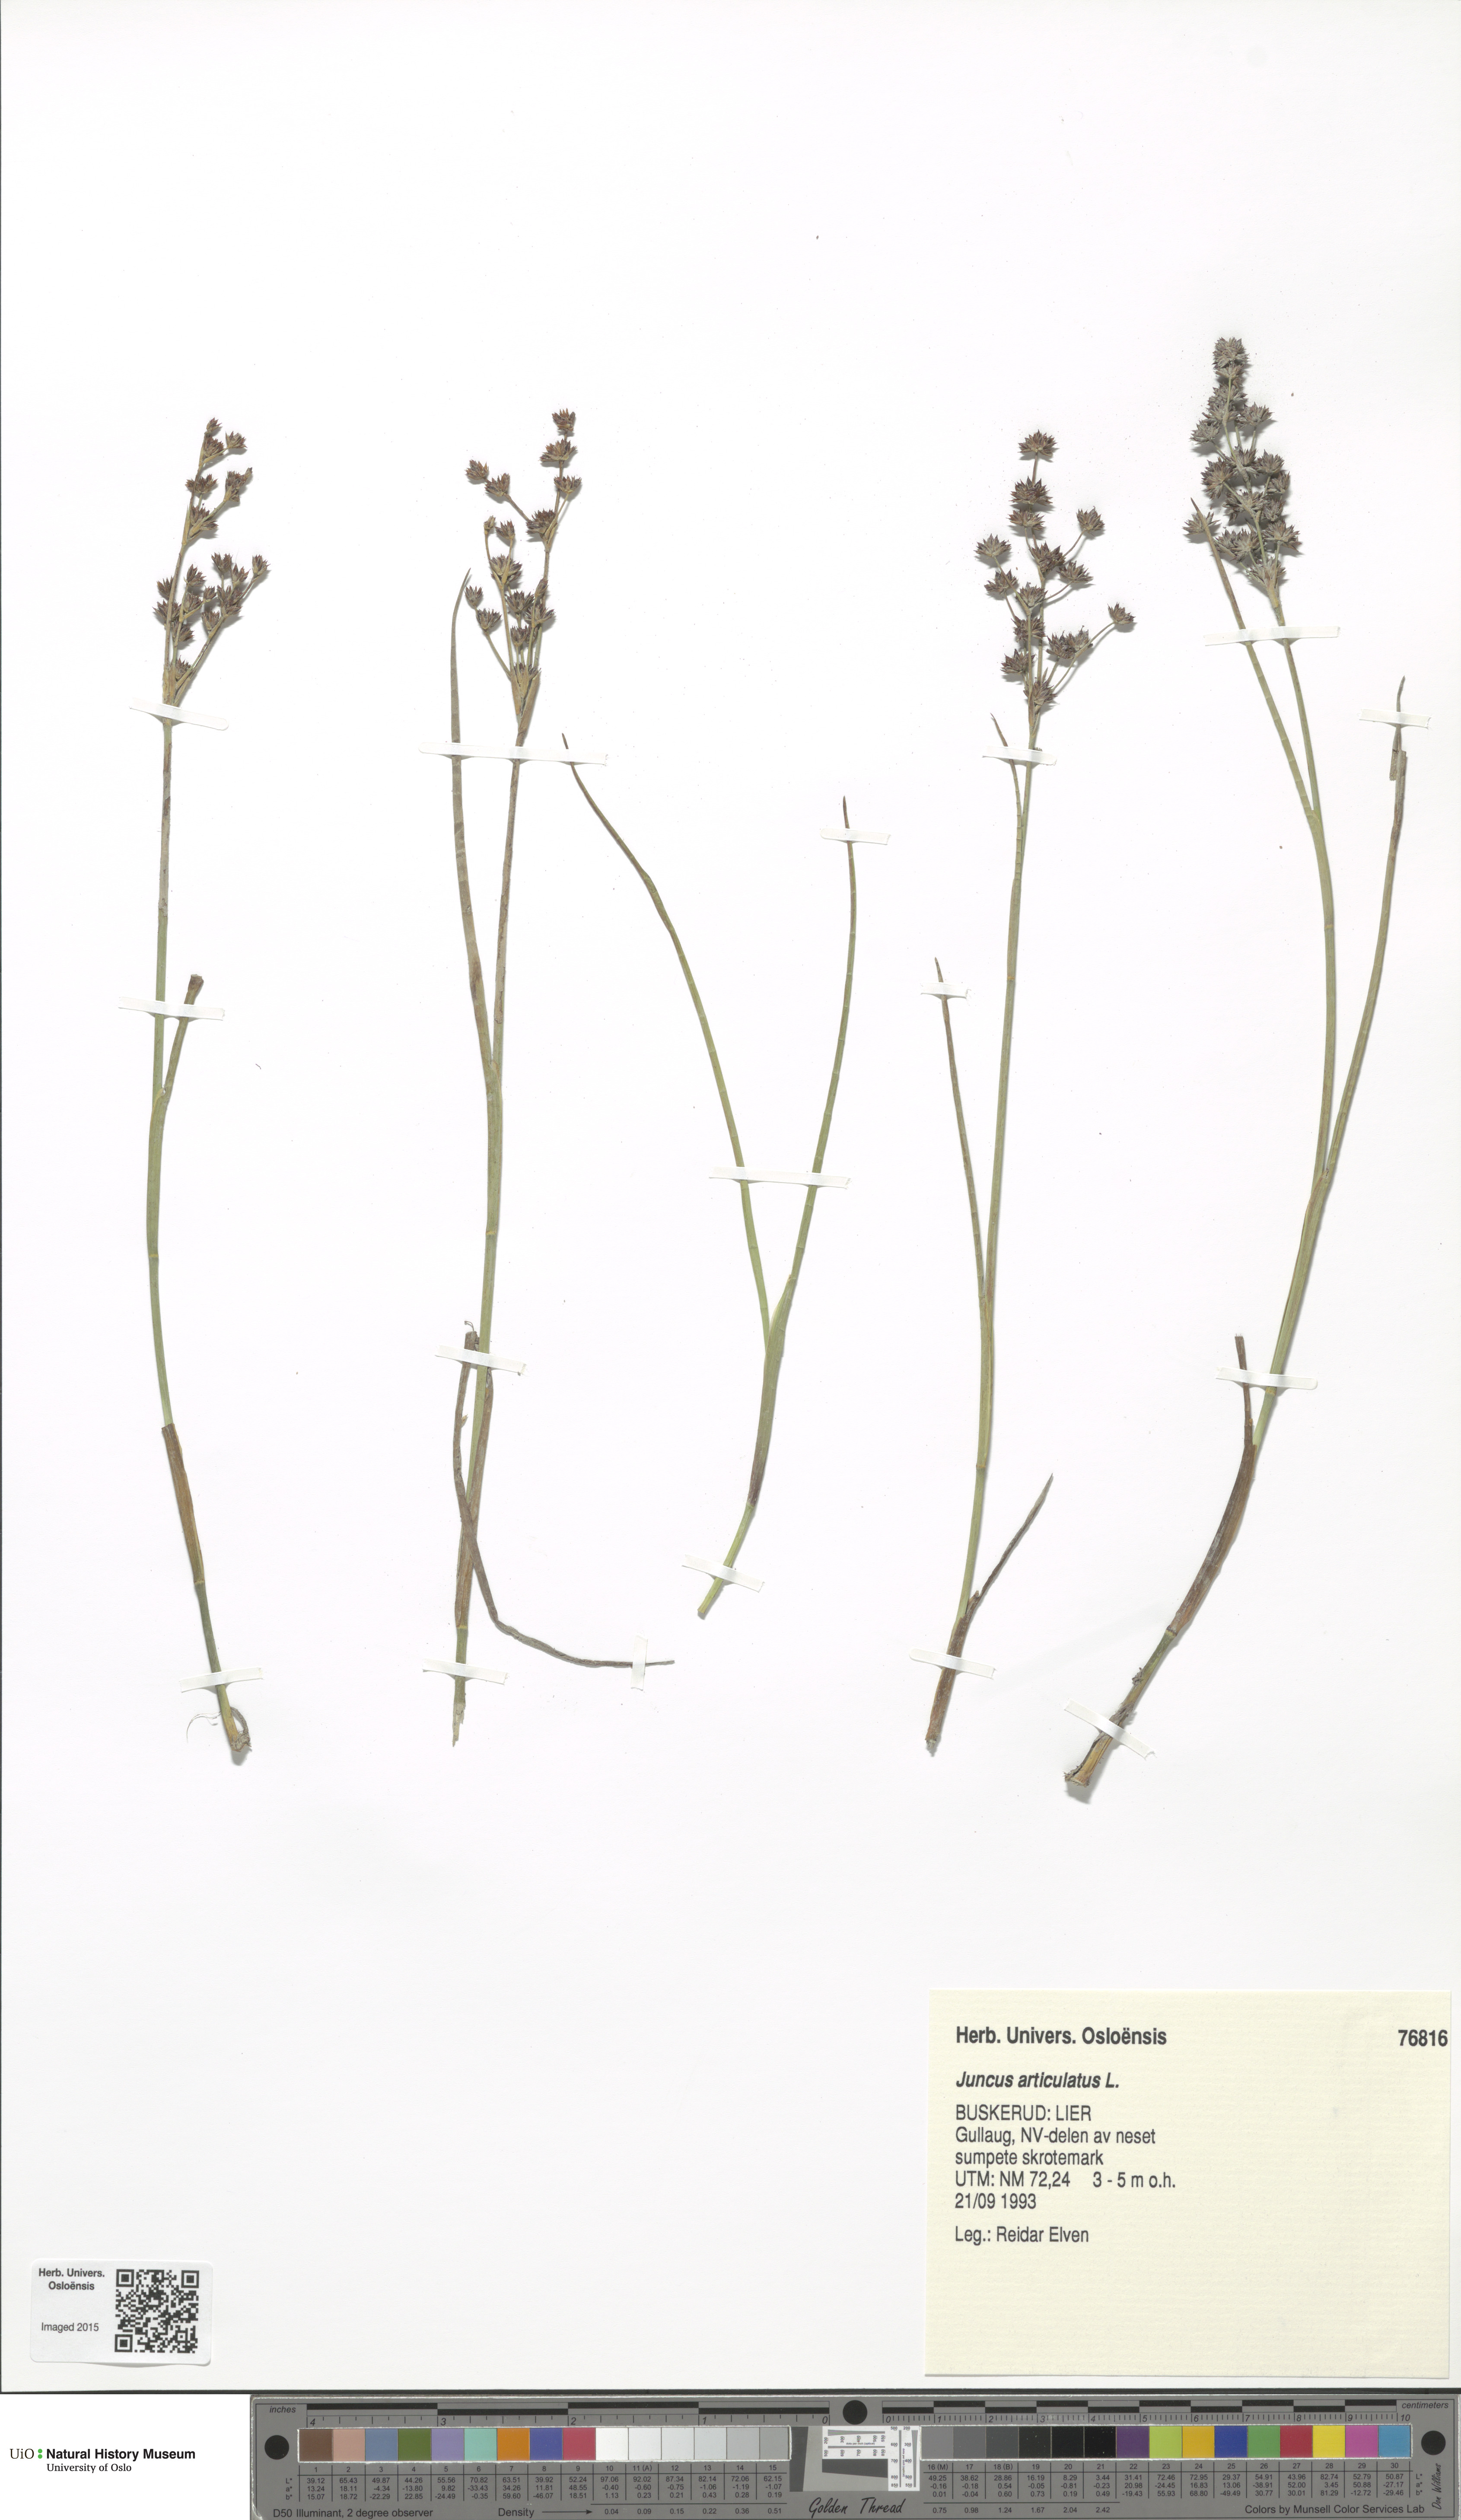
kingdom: Plantae
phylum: Tracheophyta
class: Liliopsida
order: Poales
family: Juncaceae
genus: Juncus
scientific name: Juncus articulatus
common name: Jointed rush
